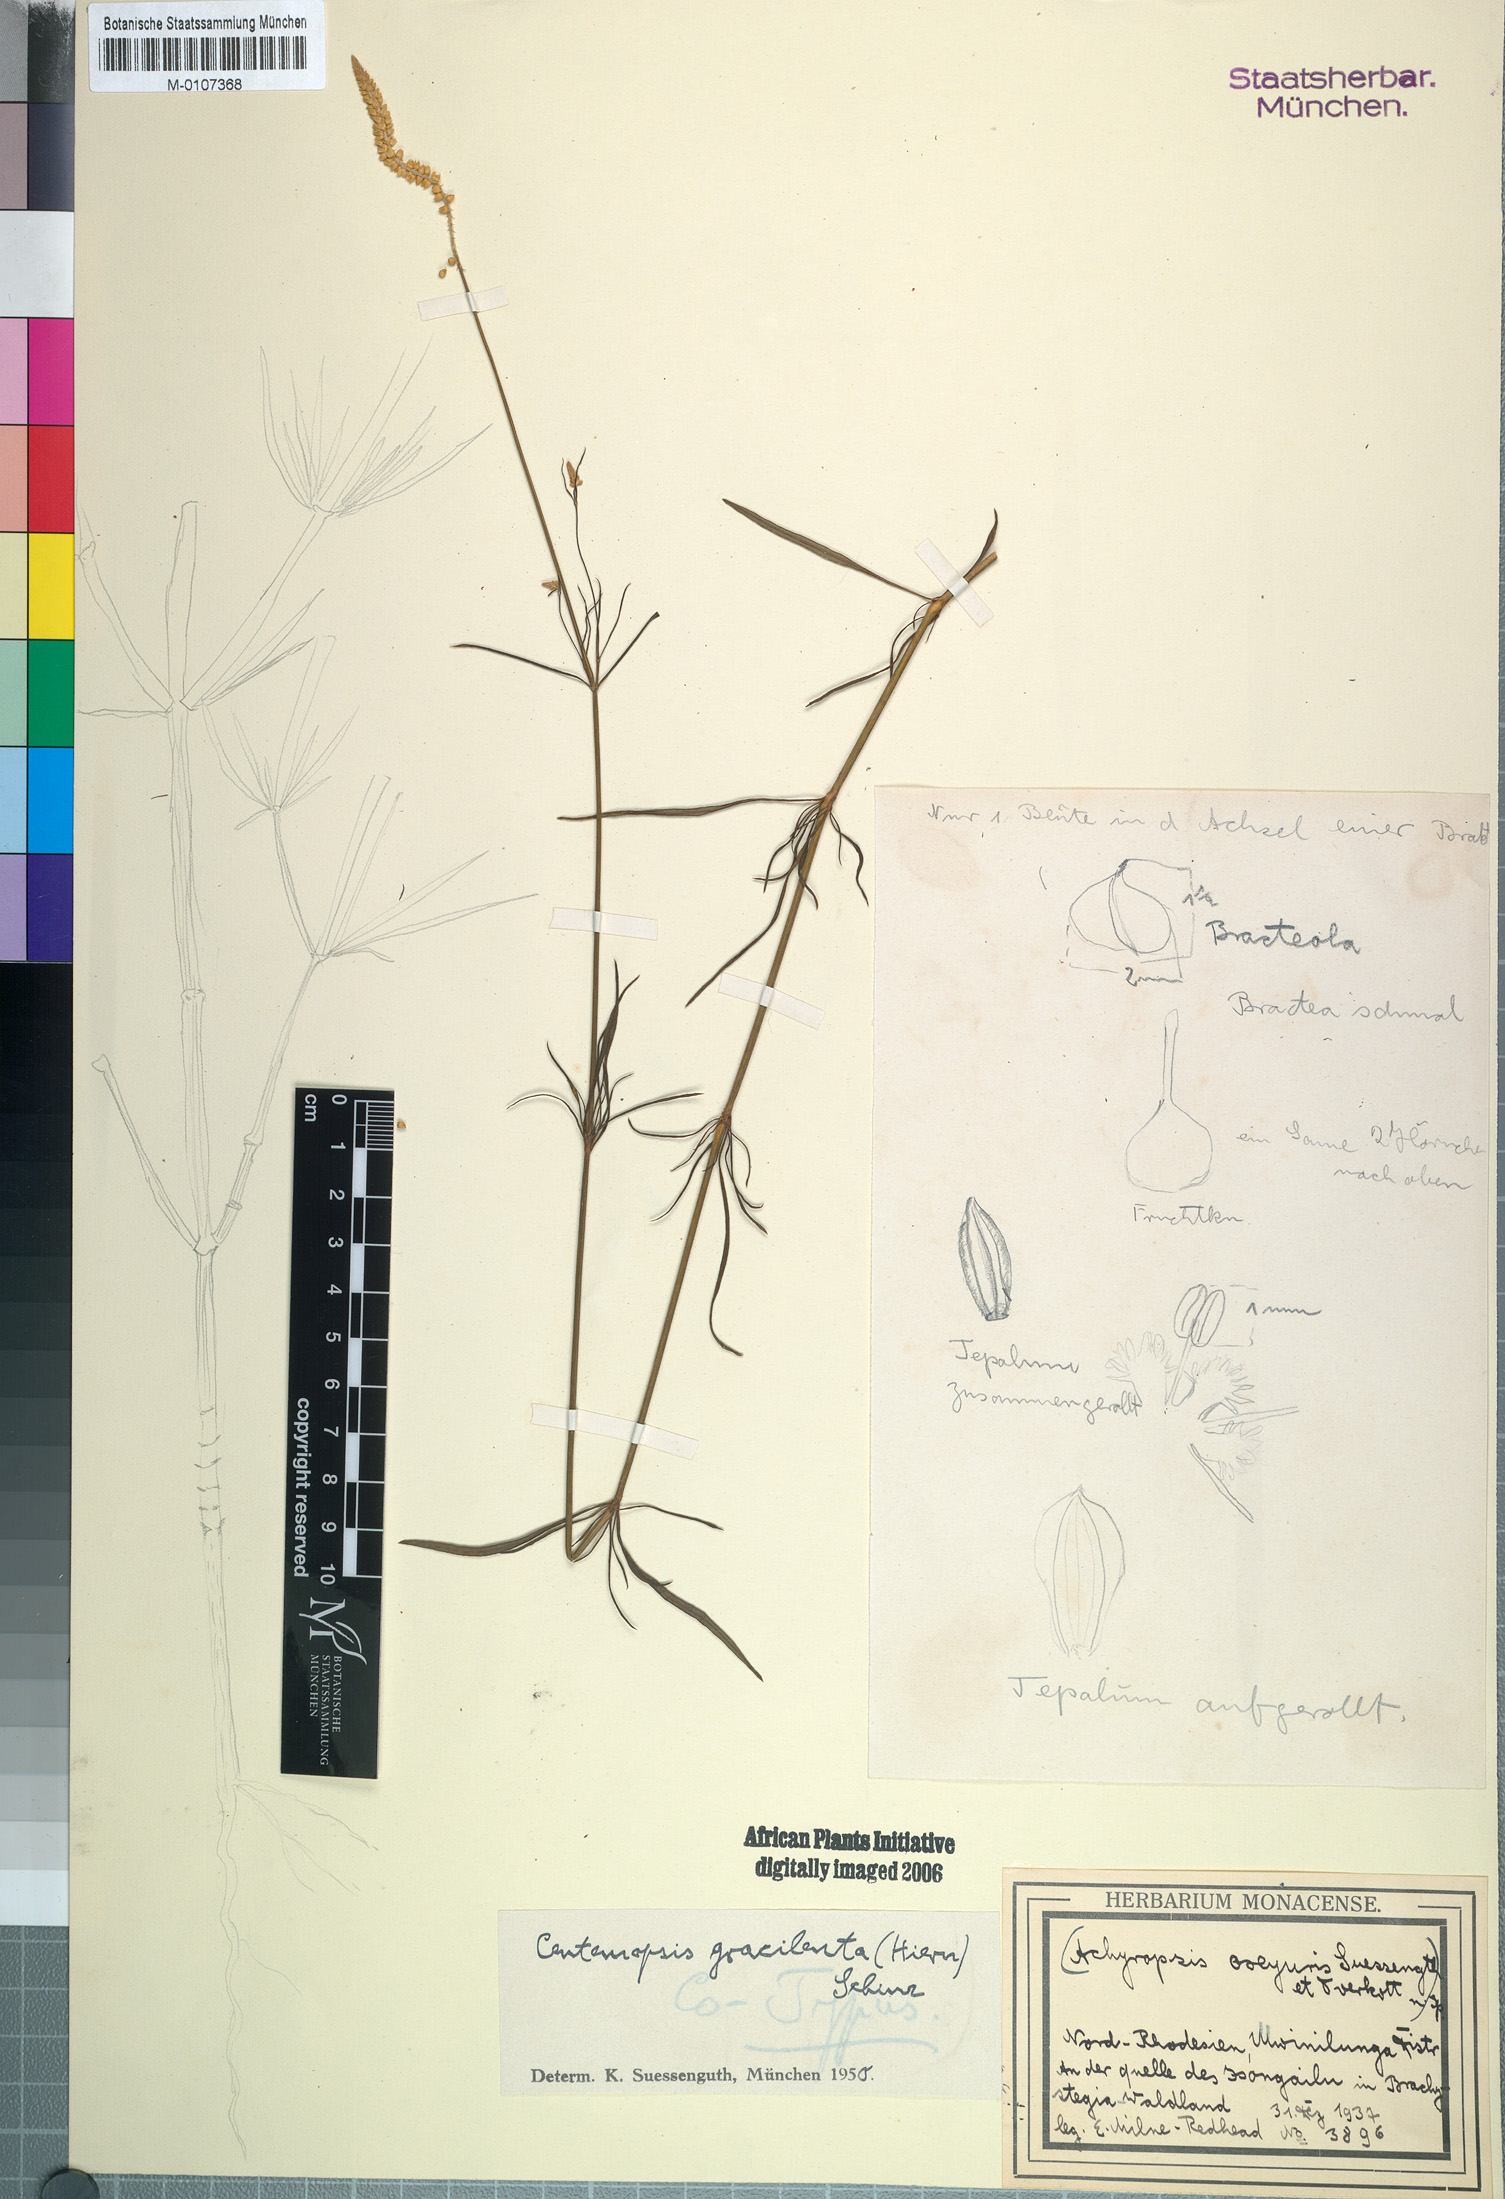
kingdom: Plantae
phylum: Tracheophyta
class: Magnoliopsida
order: Caryophyllales
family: Amaranthaceae
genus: Centemopsis
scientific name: Centemopsis gracilenta
